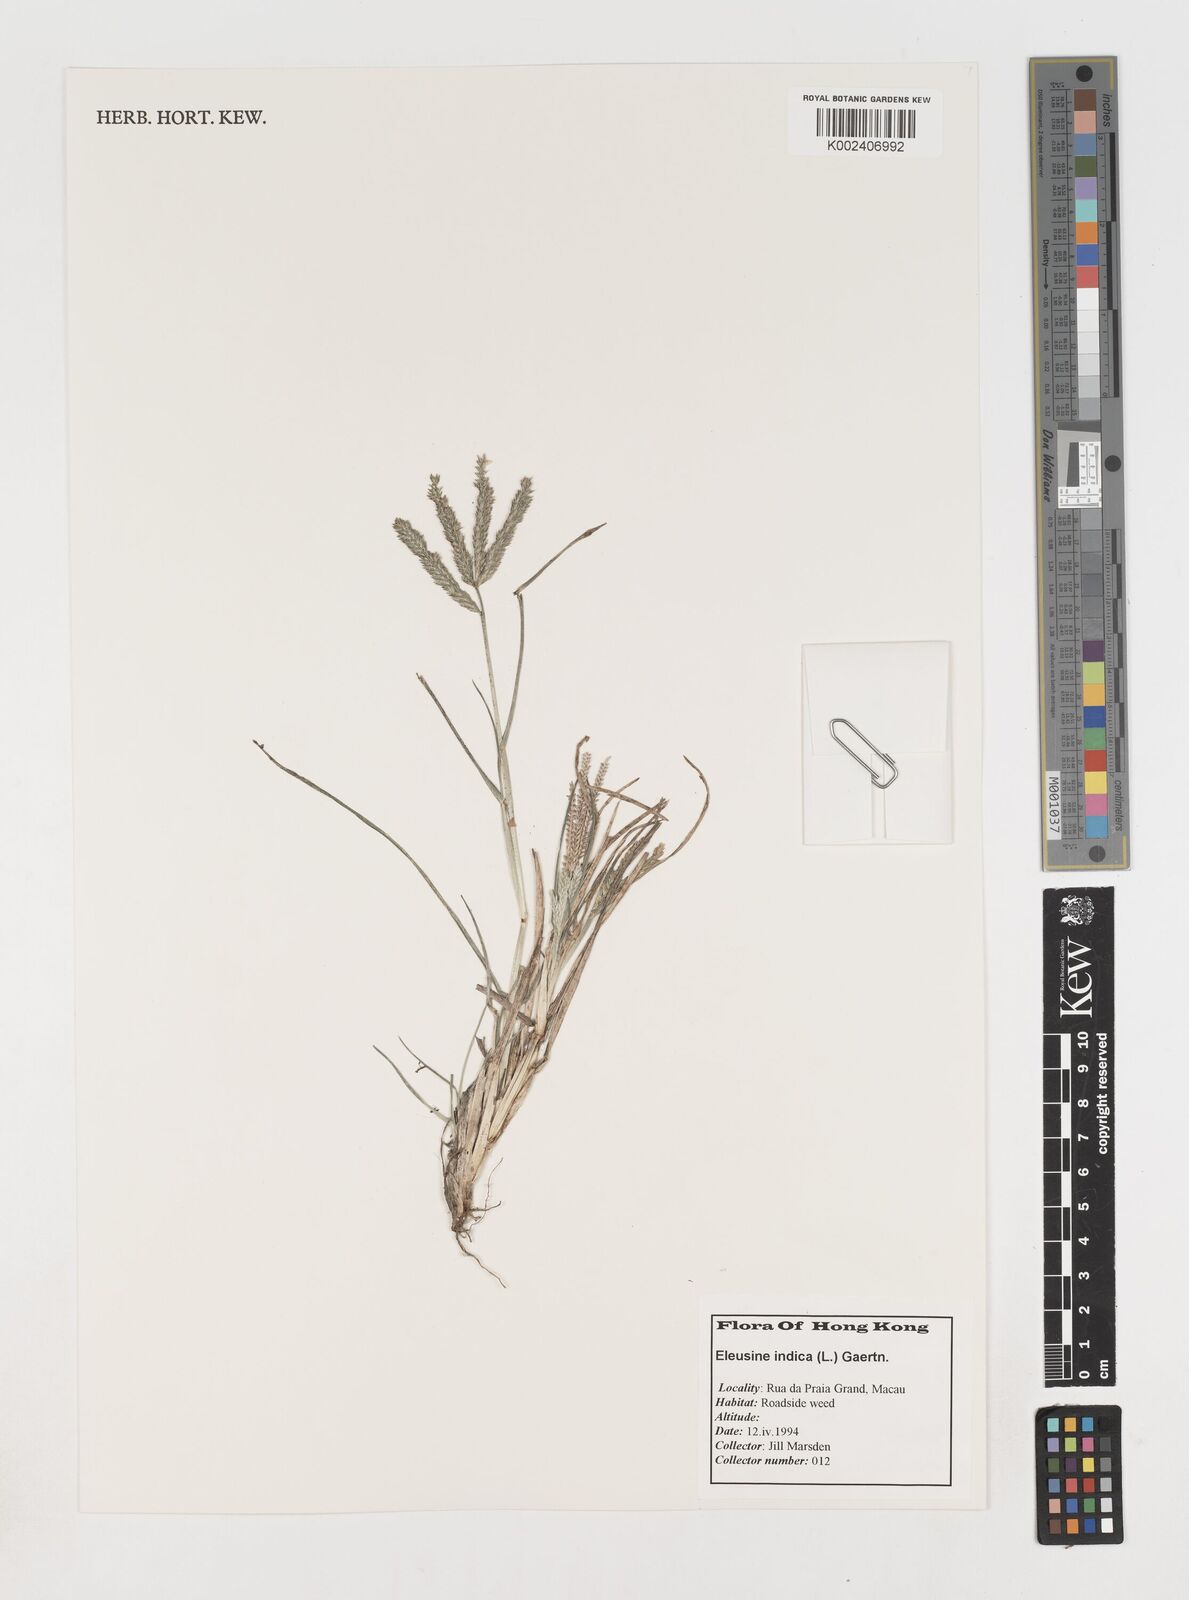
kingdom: Plantae
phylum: Tracheophyta
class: Liliopsida
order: Poales
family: Poaceae
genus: Eleusine
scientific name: Eleusine indica
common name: Yard-grass
